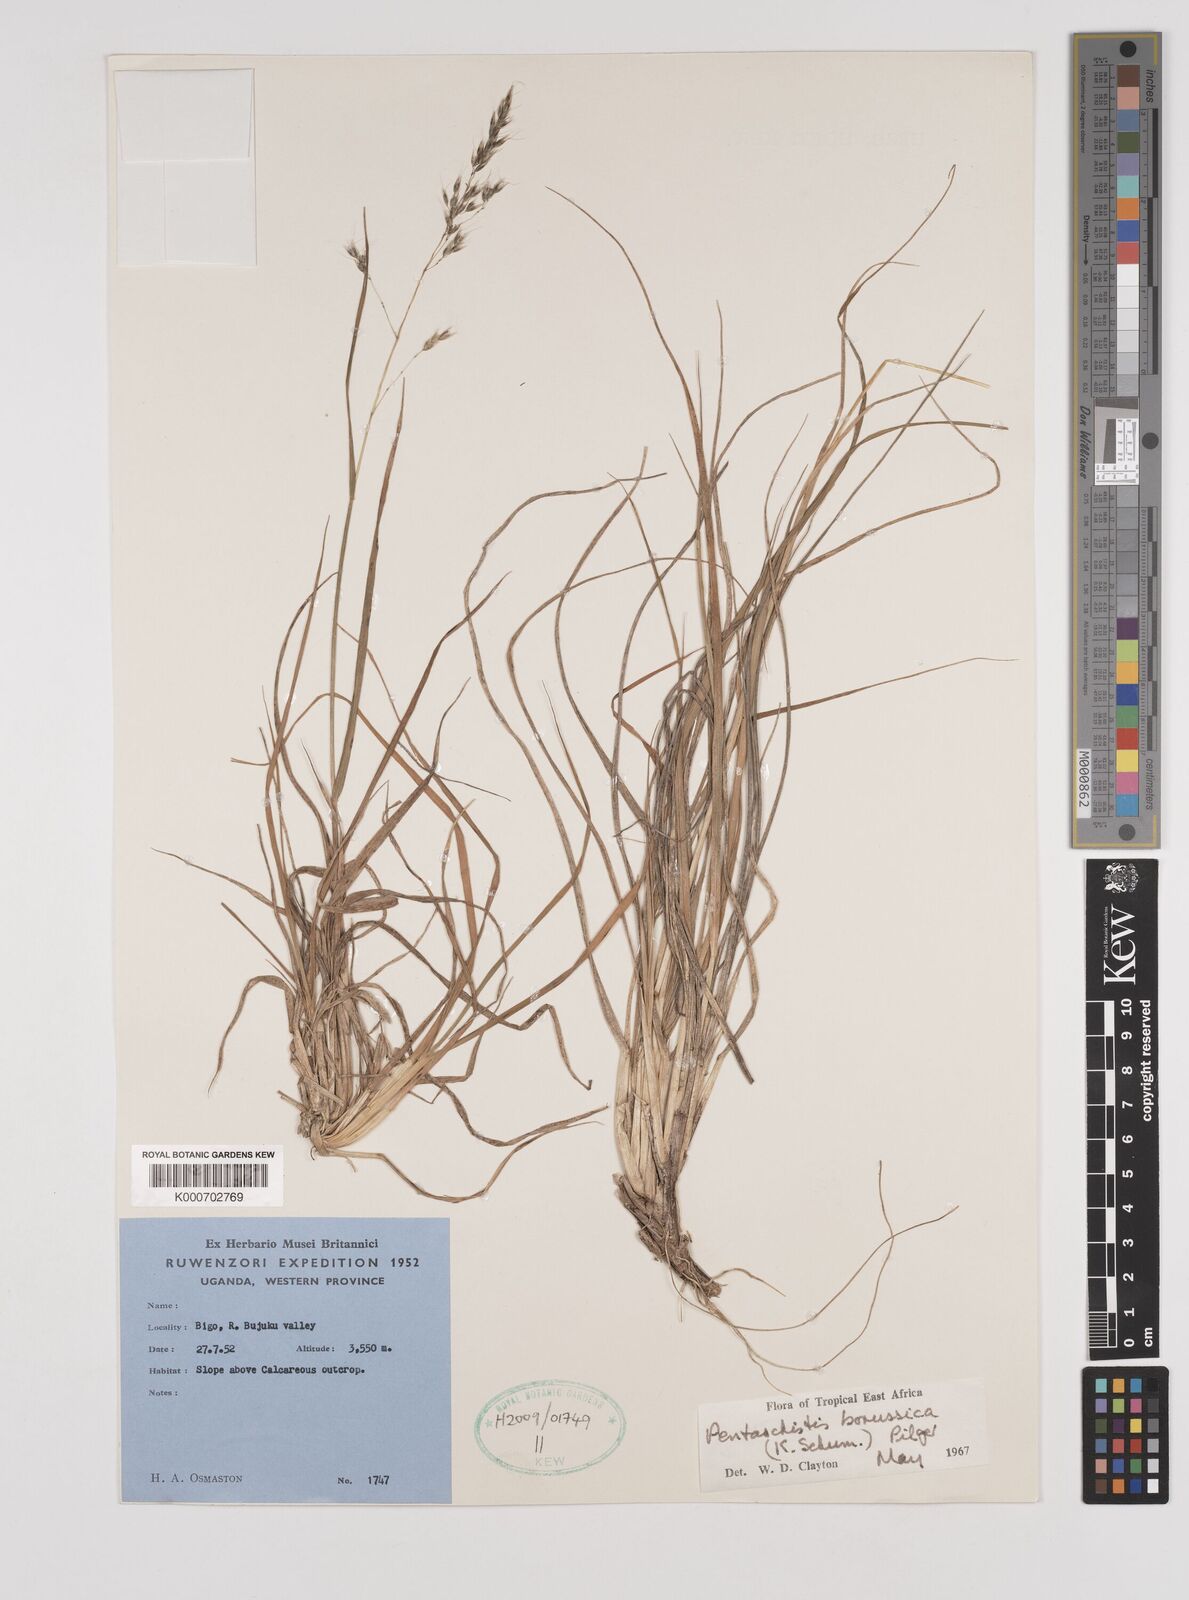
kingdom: Plantae
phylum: Tracheophyta
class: Liliopsida
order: Poales
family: Poaceae
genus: Pentameris
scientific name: Pentameris borussica
